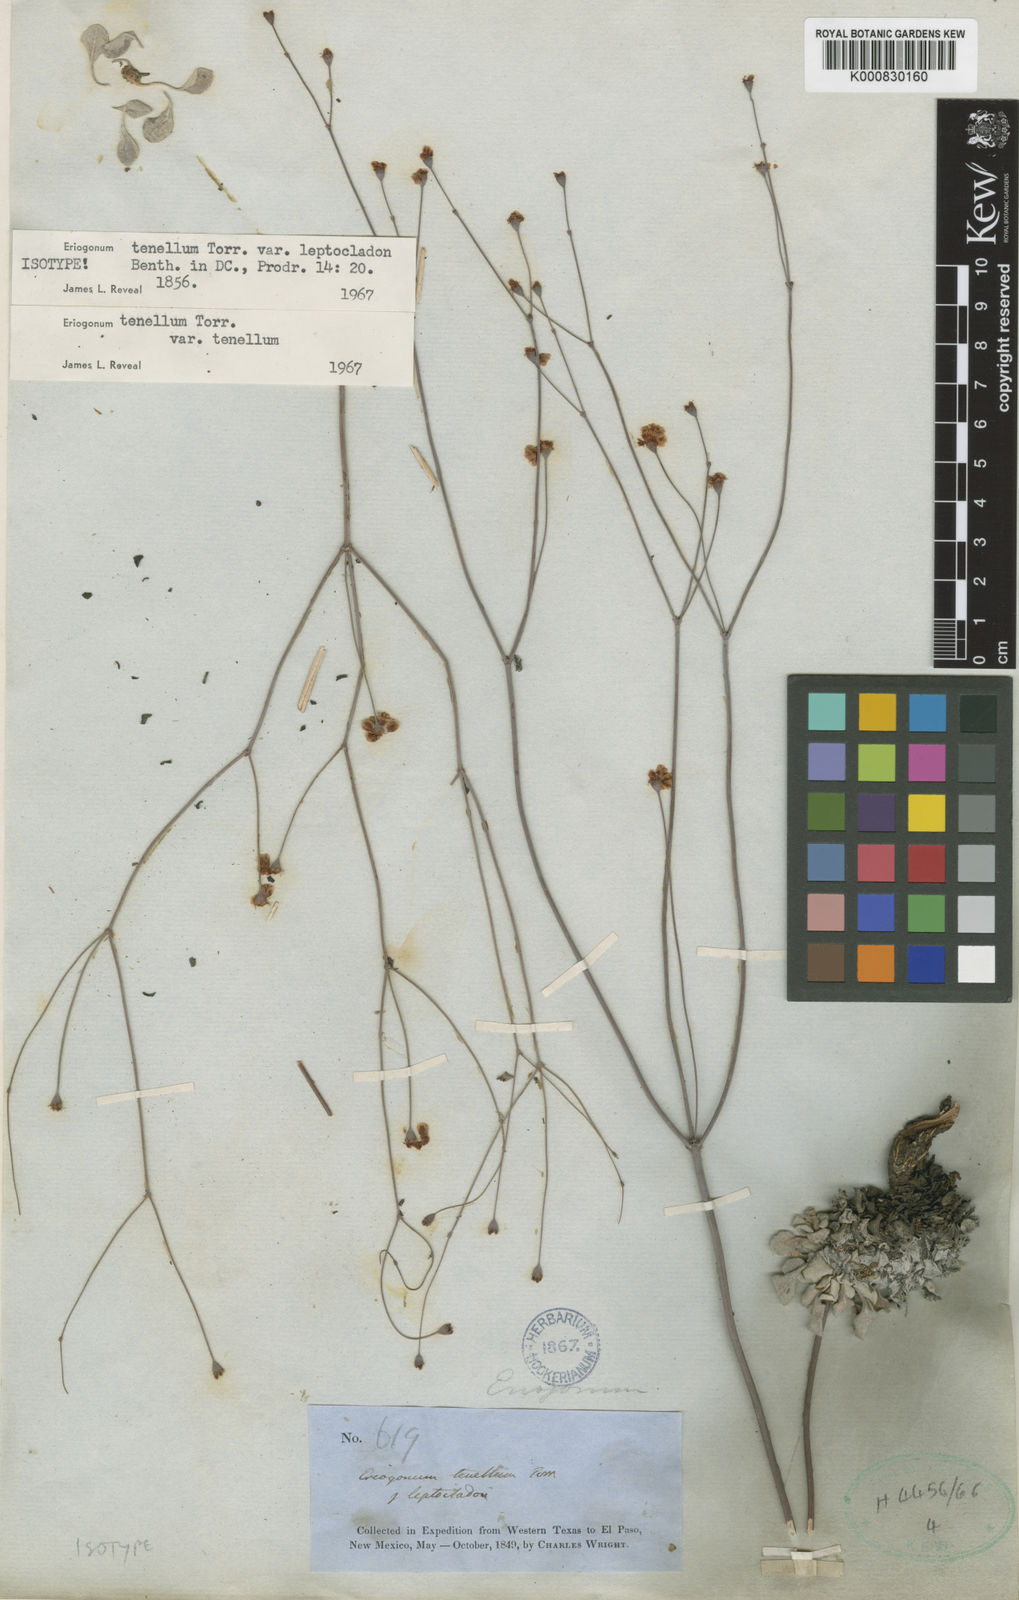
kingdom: Plantae
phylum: Tracheophyta
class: Magnoliopsida
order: Caryophyllales
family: Polygonaceae
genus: Eriogonum
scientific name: Eriogonum tenellum
